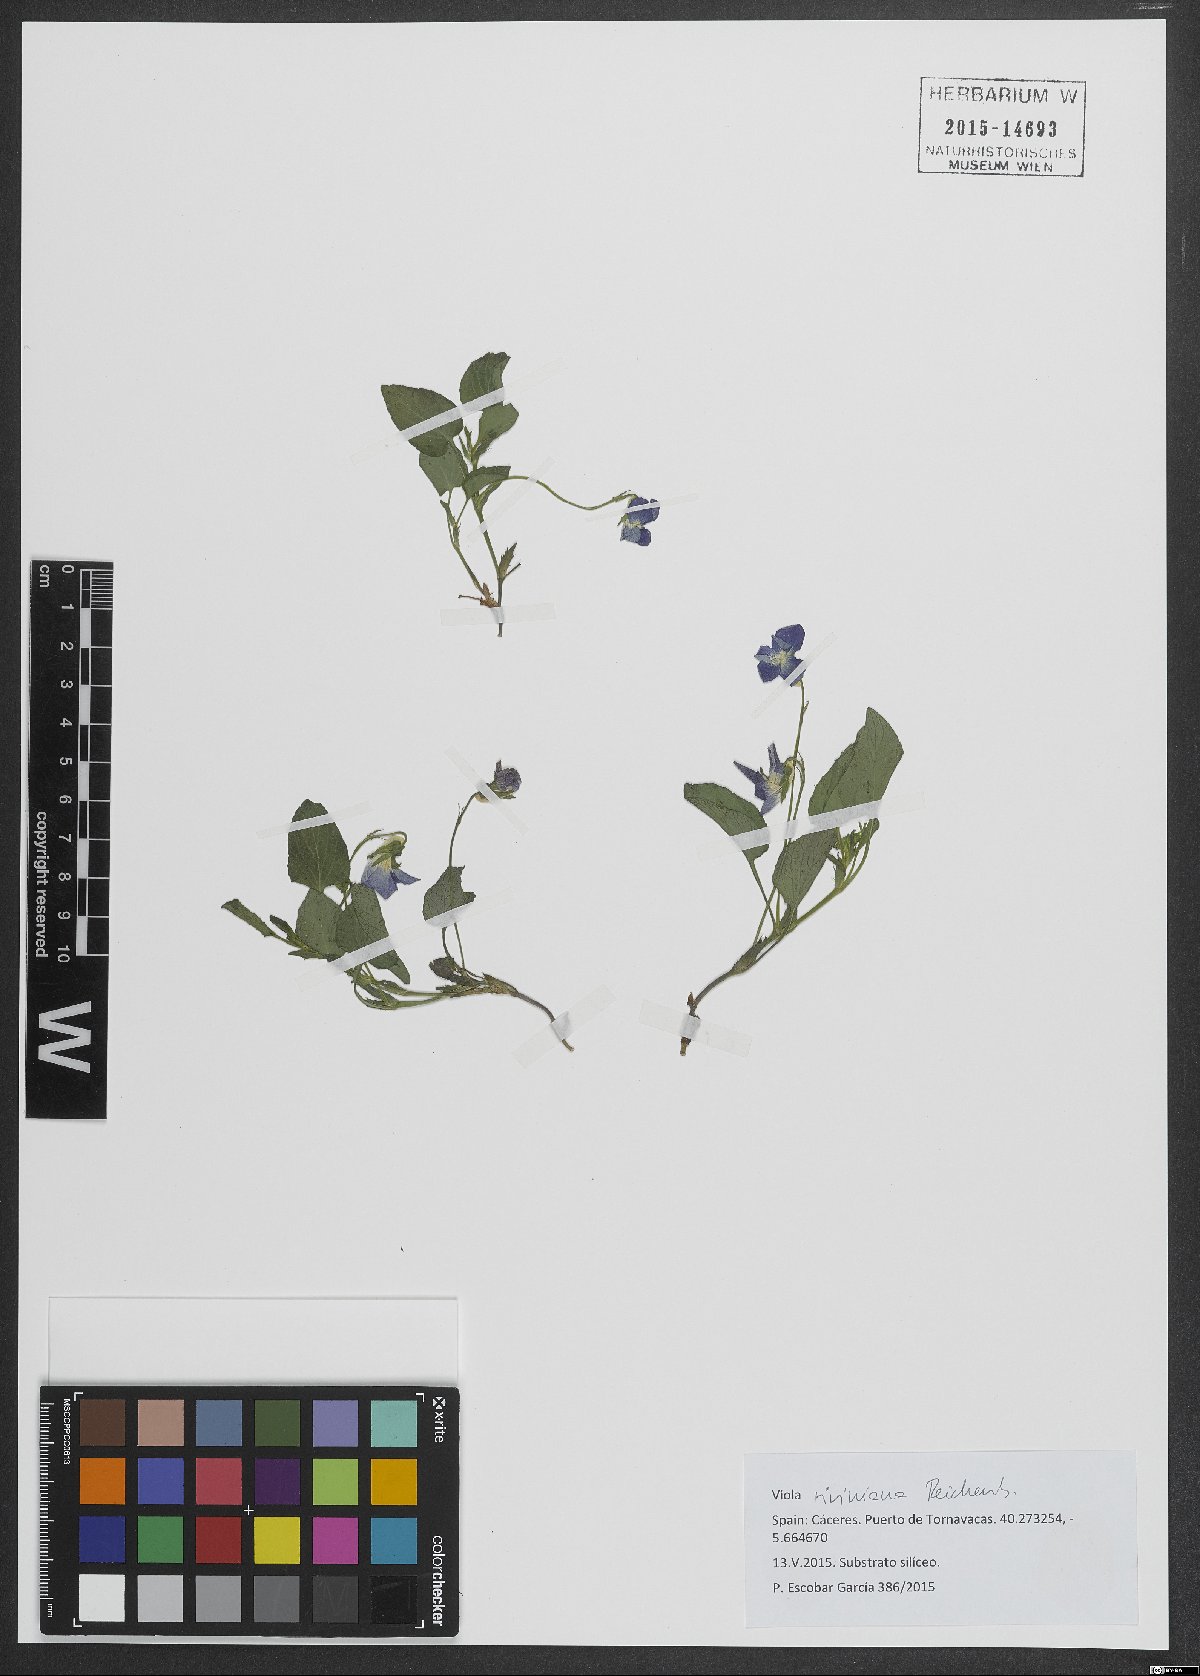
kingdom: Plantae
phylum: Tracheophyta
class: Magnoliopsida
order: Malpighiales
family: Violaceae
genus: Viola
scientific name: Viola riviniana
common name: Common dog-violet
